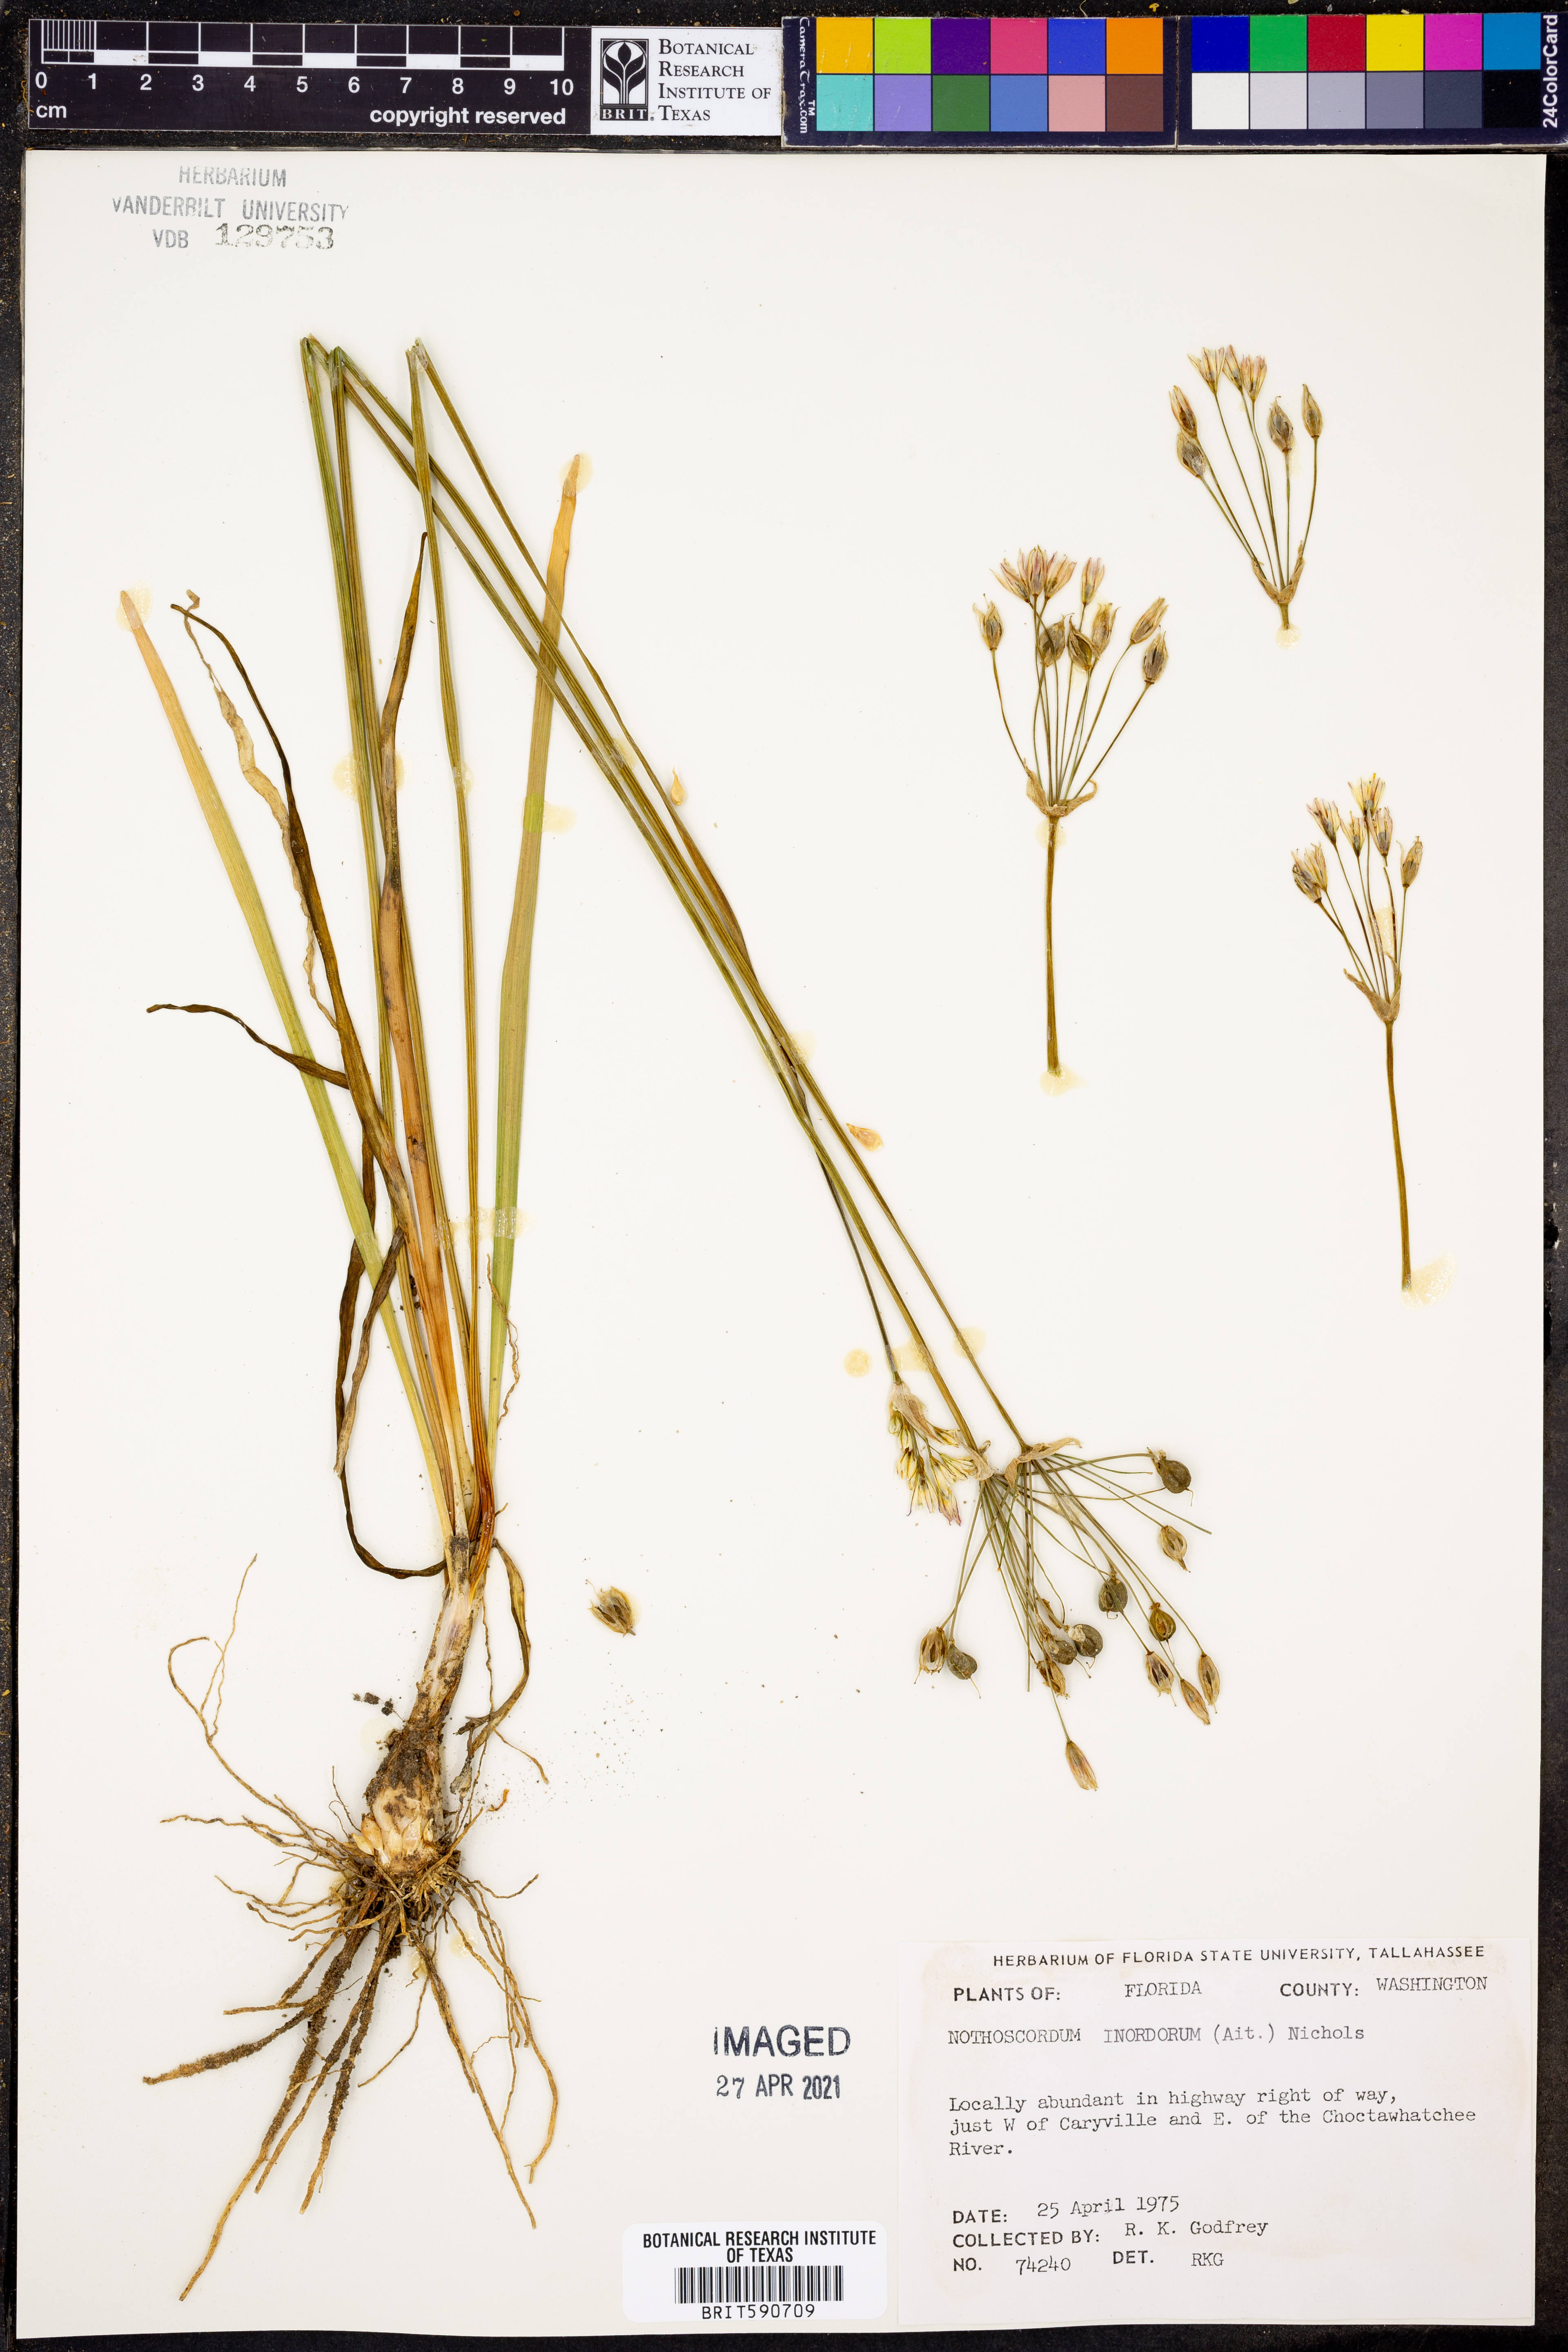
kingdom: Plantae
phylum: Tracheophyta
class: Liliopsida
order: Asparagales
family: Amaryllidaceae
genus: Allium
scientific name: Allium neapolitanum
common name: Neapolitan garlic
